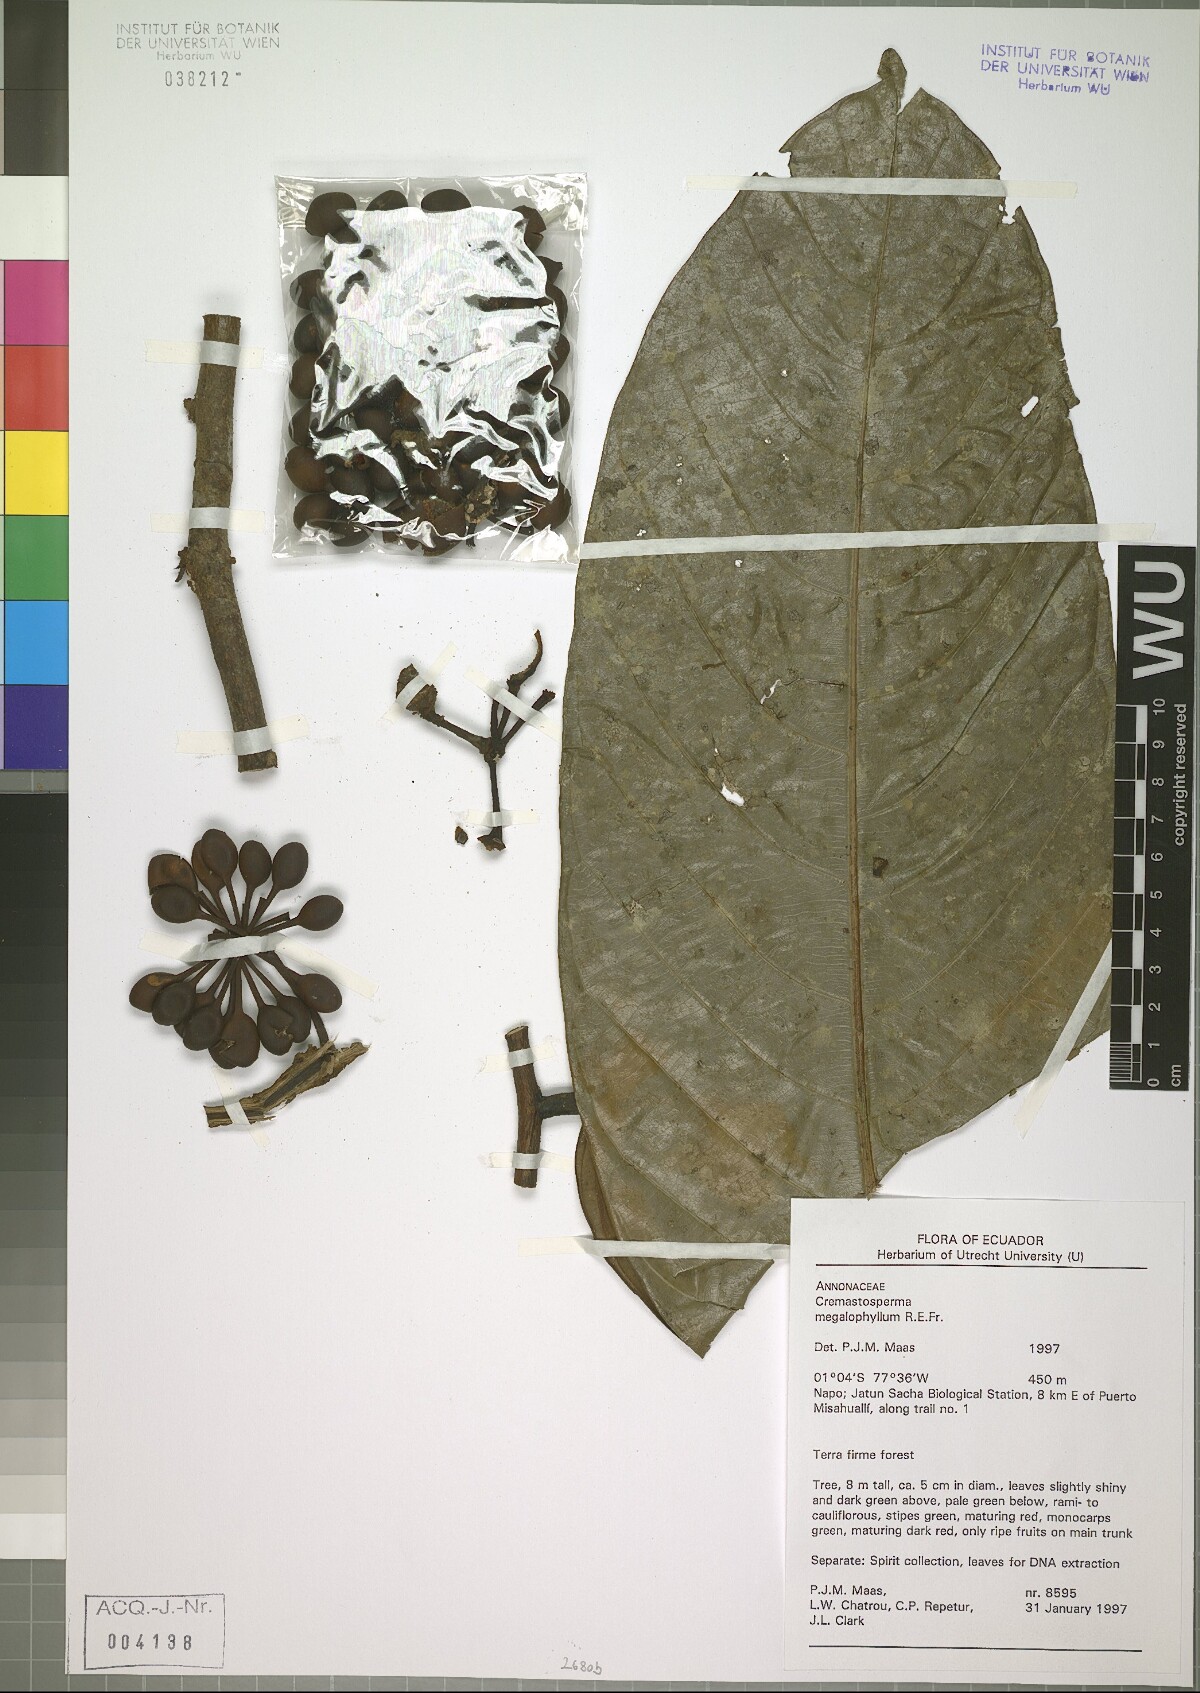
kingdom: Plantae
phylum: Tracheophyta
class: Magnoliopsida
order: Magnoliales
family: Annonaceae
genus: Cremastosperma
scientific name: Cremastosperma megalophyllum
